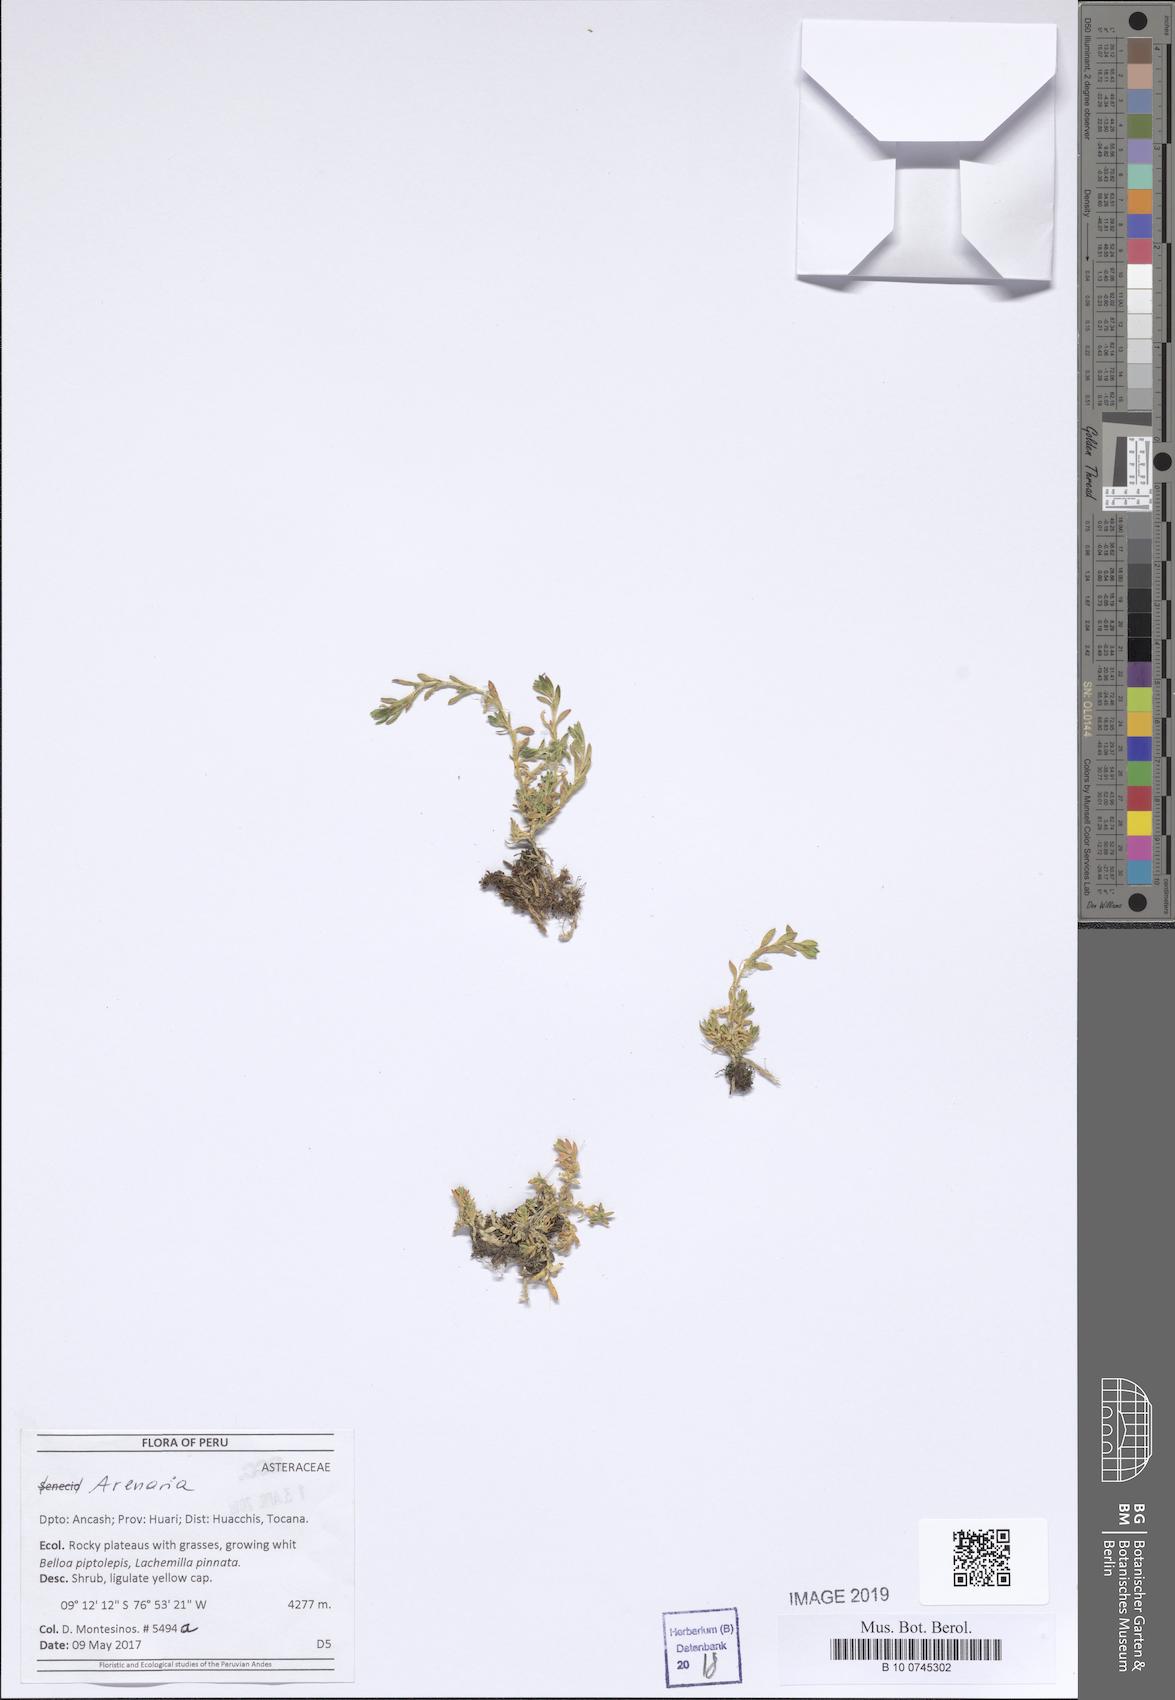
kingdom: Plantae
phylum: Tracheophyta
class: Magnoliopsida
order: Caryophyllales
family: Caryophyllaceae
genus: Arenaria
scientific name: Arenaria
